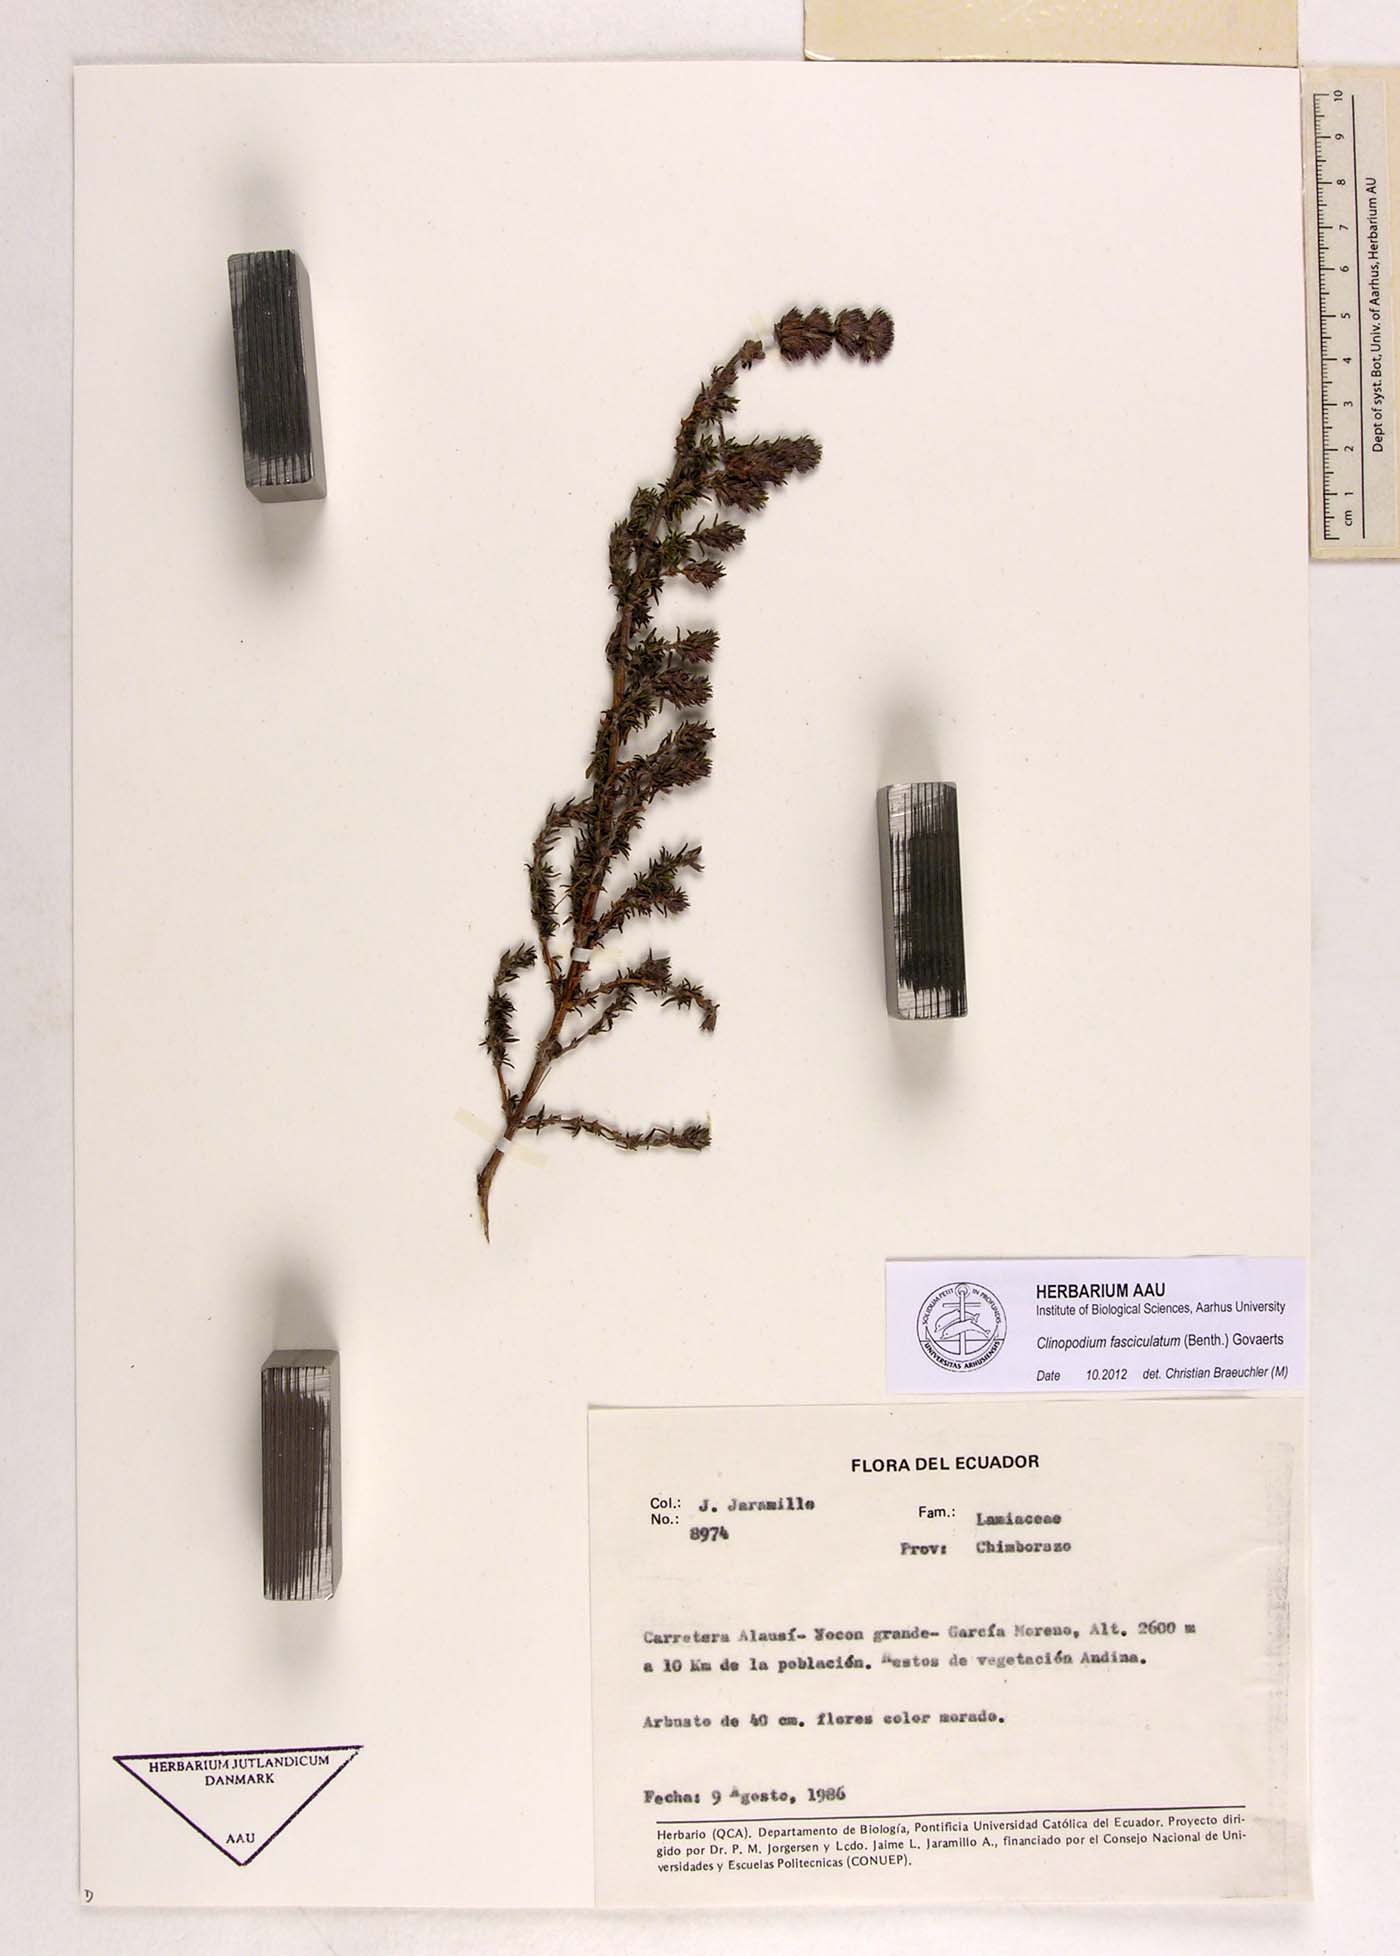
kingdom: Plantae
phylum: Tracheophyta
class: Magnoliopsida
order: Lamiales
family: Lamiaceae
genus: Clinopodium
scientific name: Clinopodium fasciculatum
